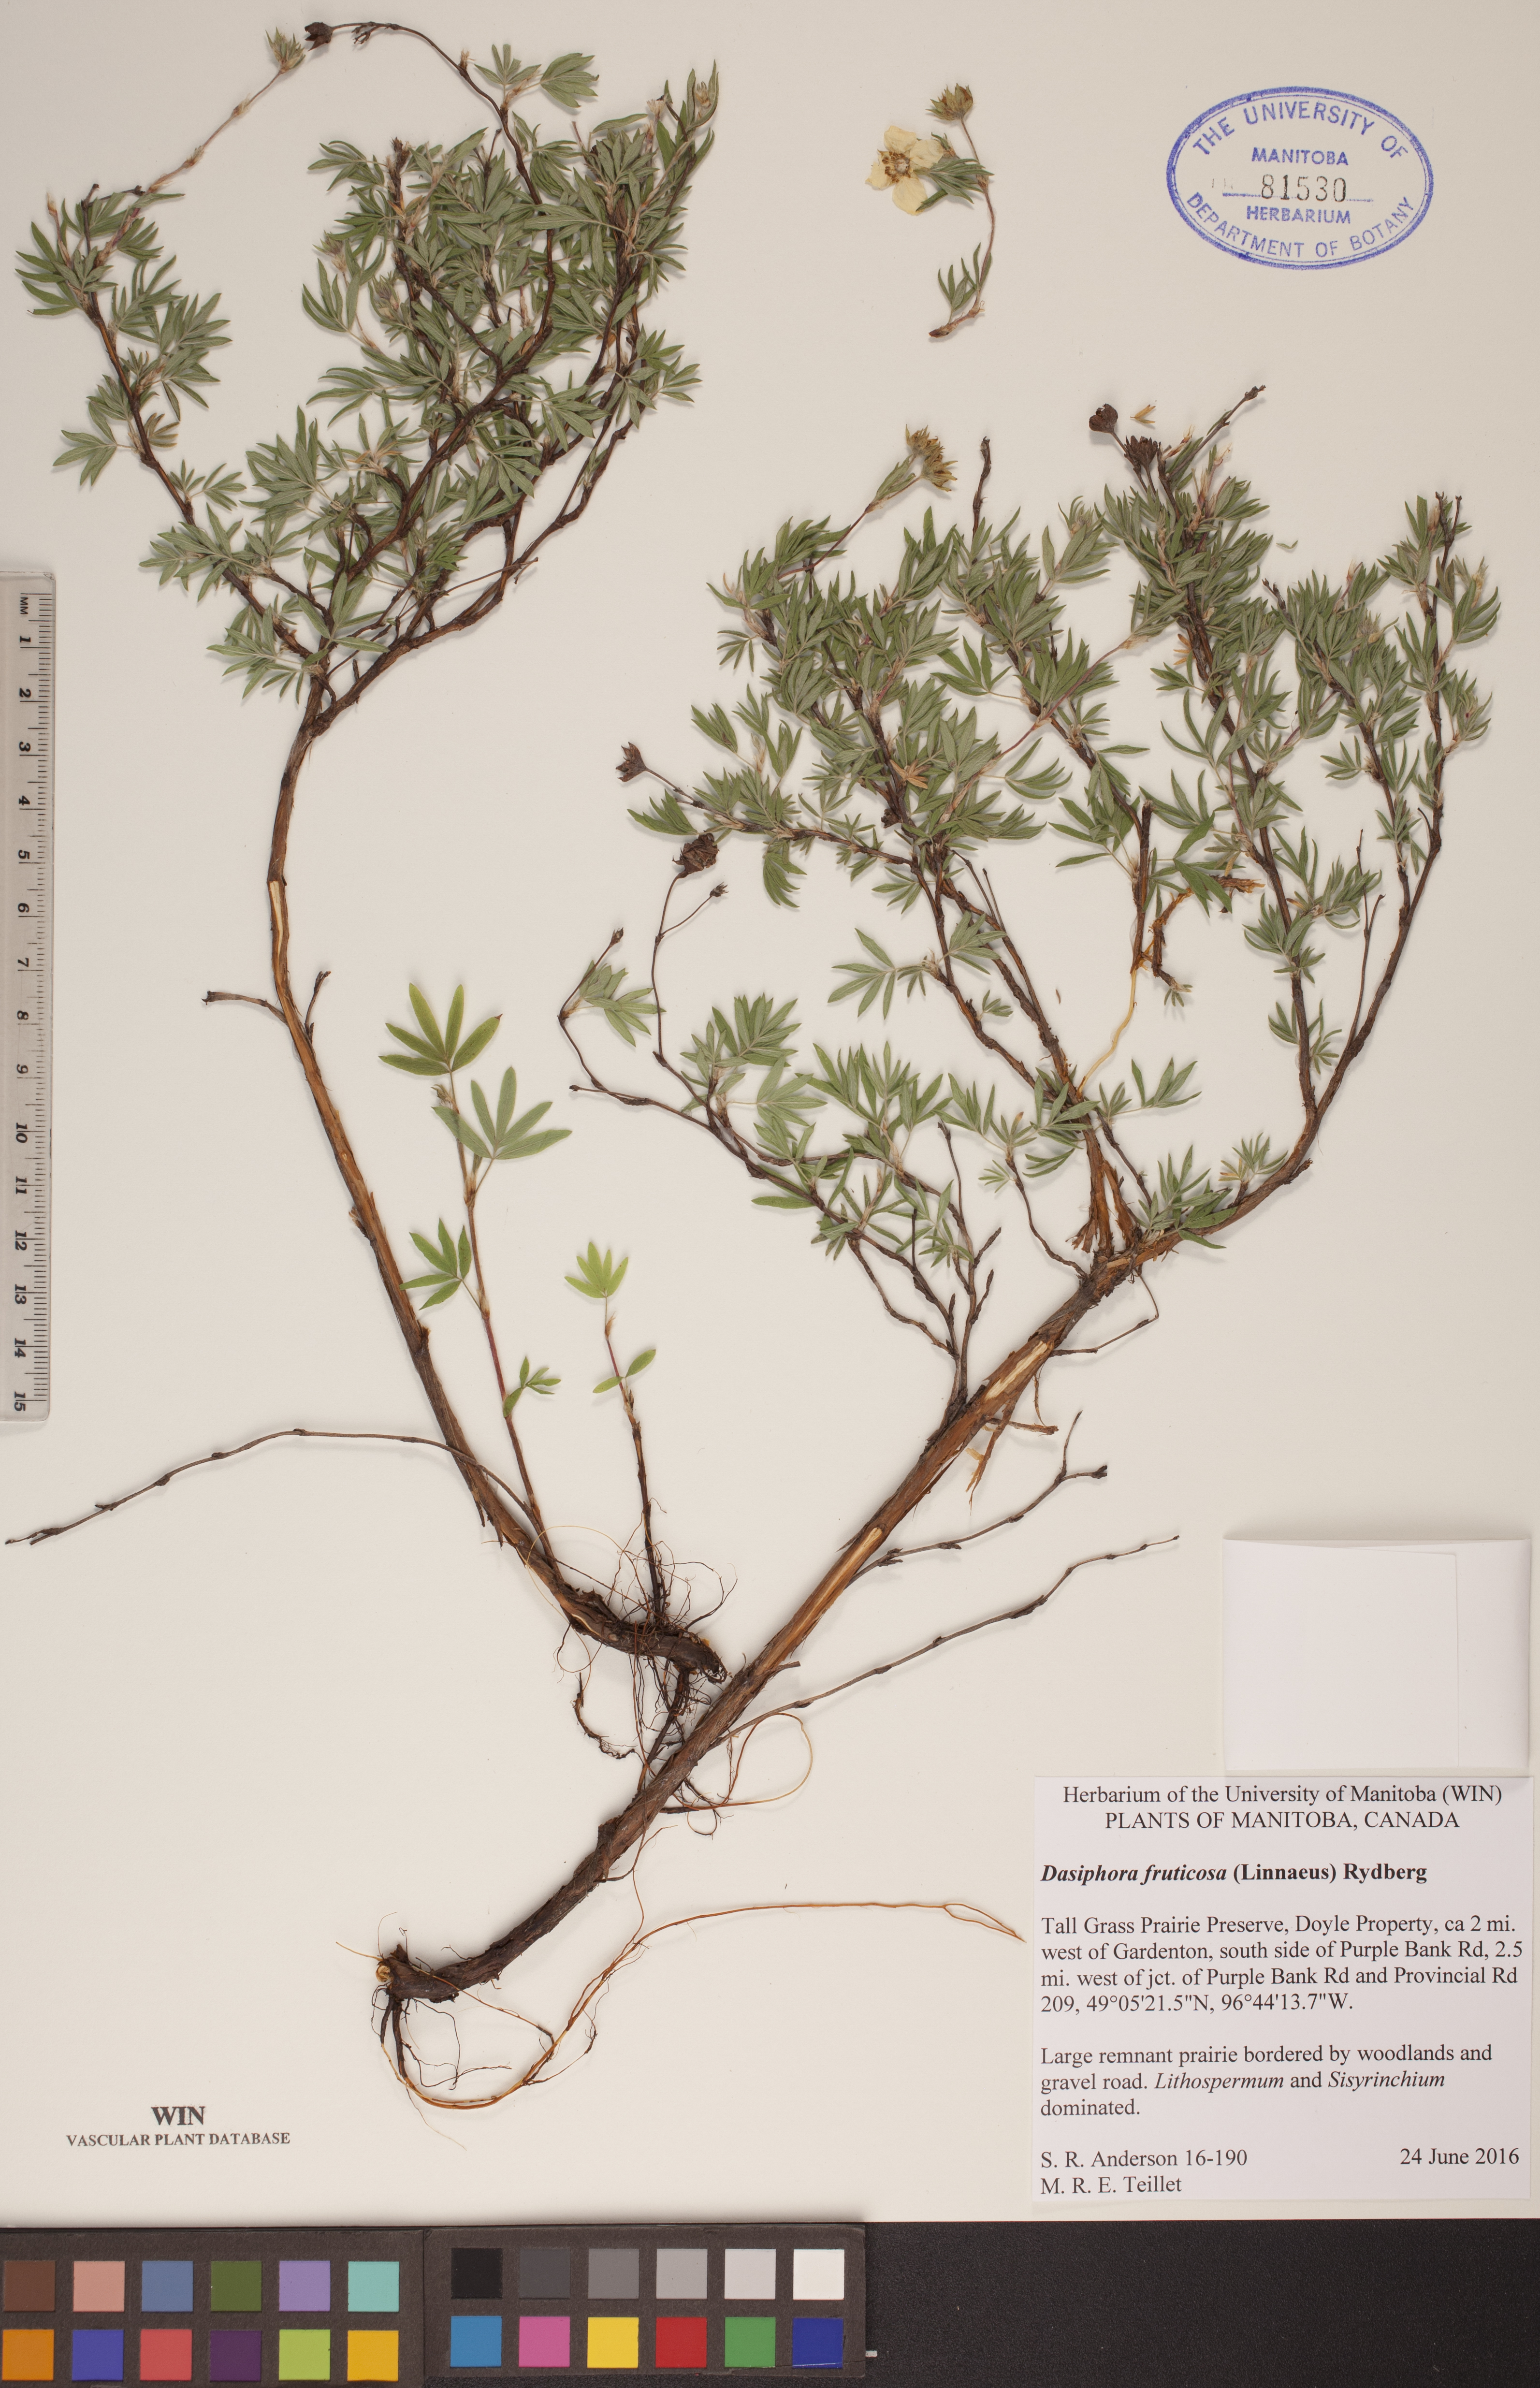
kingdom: Plantae
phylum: Tracheophyta
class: Magnoliopsida
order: Rosales
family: Rosaceae
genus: Dasiphora
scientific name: Dasiphora fruticosa
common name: Shrubby cinquefoil
